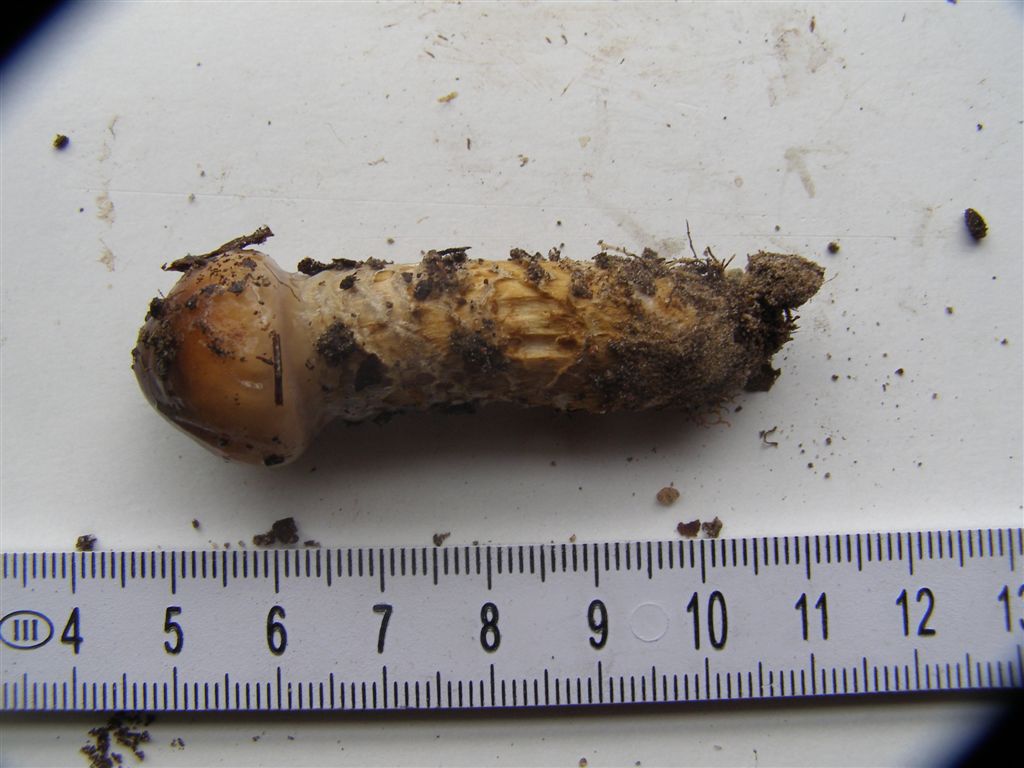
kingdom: Fungi
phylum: Basidiomycota
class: Agaricomycetes
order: Agaricales
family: Cortinariaceae
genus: Cortinarius
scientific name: Cortinarius trivialis
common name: brunslimet slørhat
